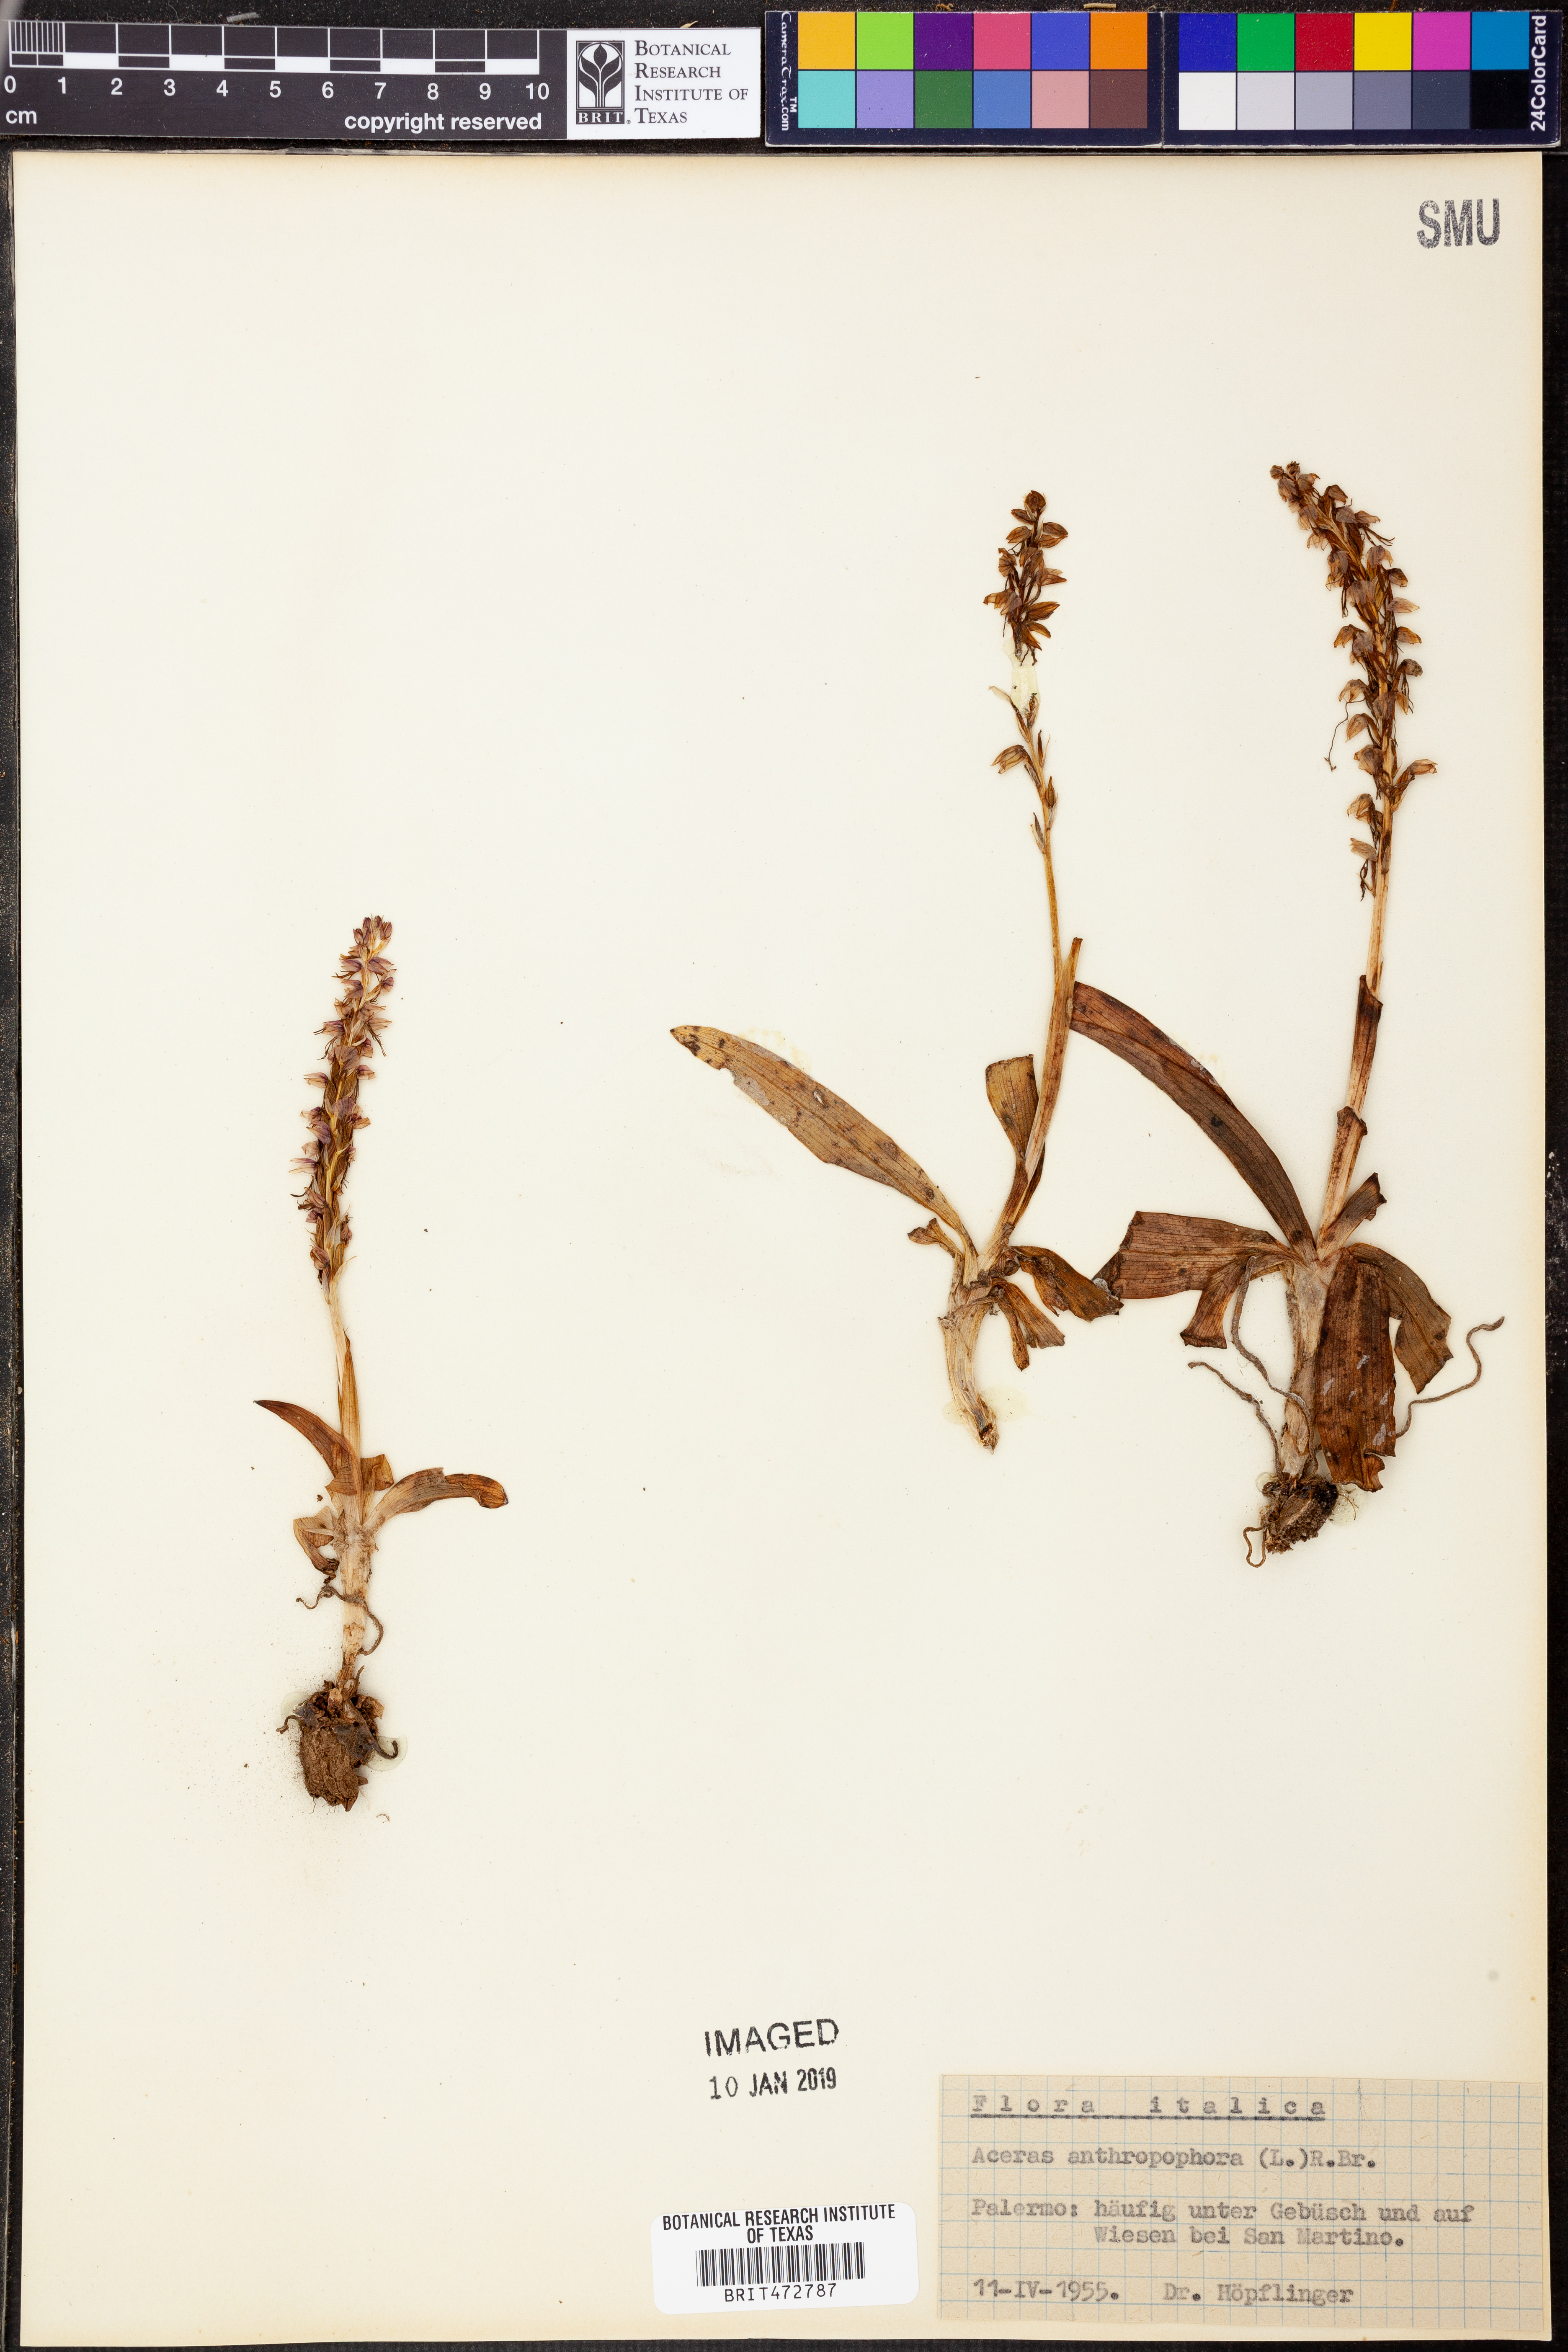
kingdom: Plantae
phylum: Tracheophyta
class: Liliopsida
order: Asparagales
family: Orchidaceae
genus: Orchis
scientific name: Orchis anthropophora
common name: Man orchid
